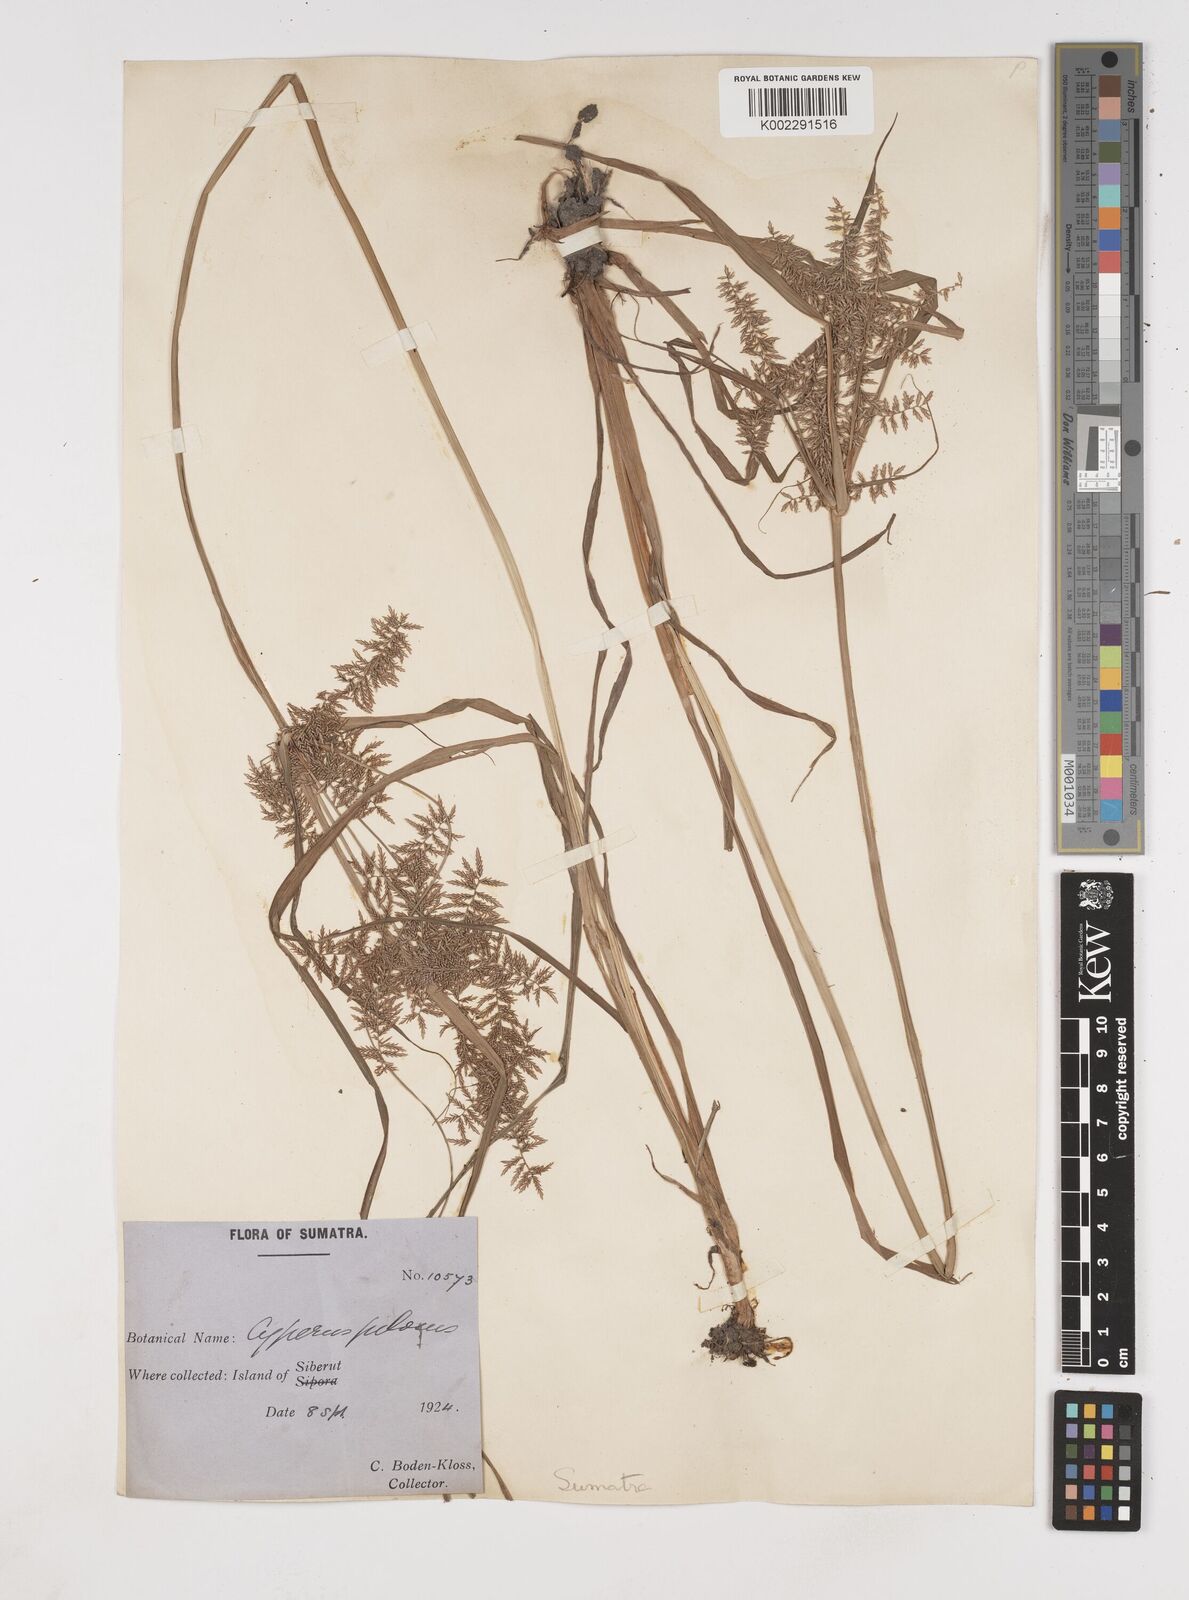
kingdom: Plantae
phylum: Tracheophyta
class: Liliopsida
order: Poales
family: Cyperaceae
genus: Cyperus
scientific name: Cyperus pilosus
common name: Fuzzy flatsedge
